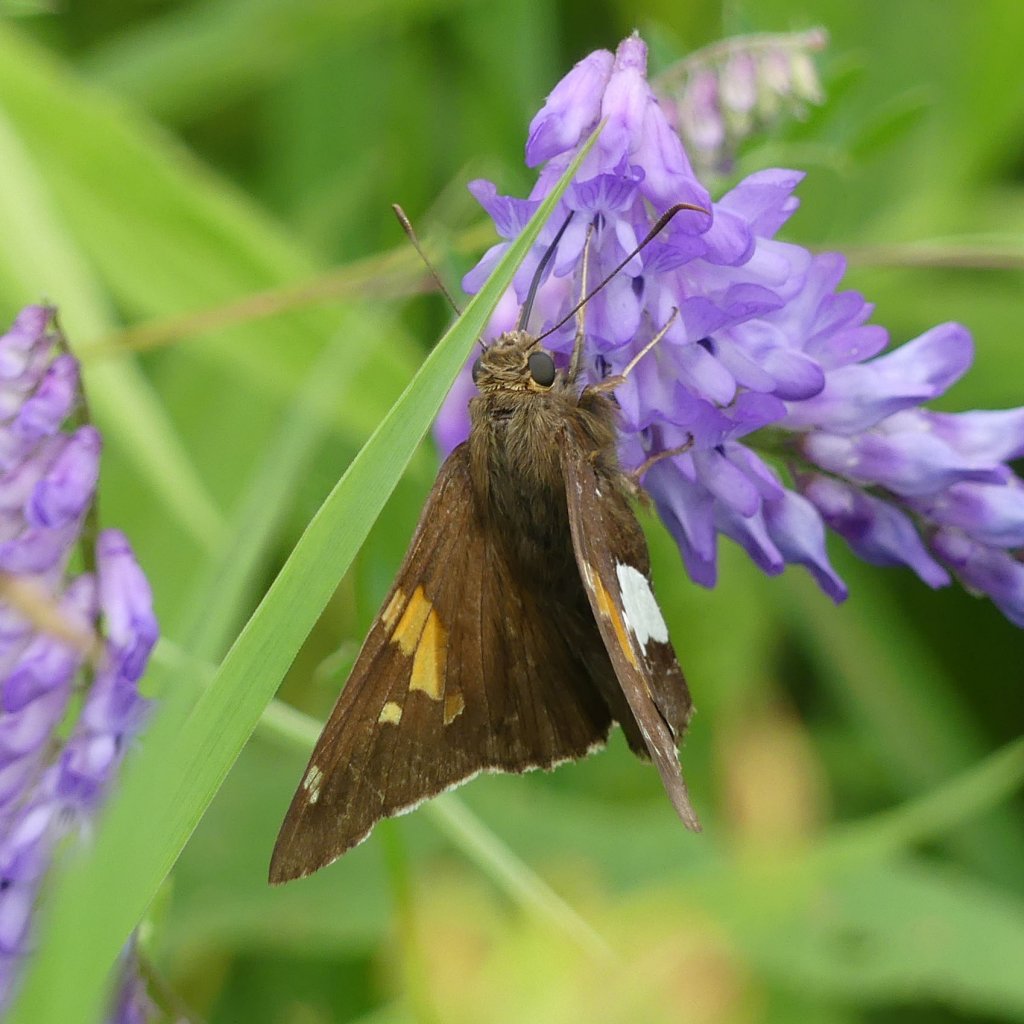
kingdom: Animalia
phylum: Arthropoda
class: Insecta
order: Lepidoptera
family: Hesperiidae
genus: Epargyreus
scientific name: Epargyreus clarus
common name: Silver-spotted Skipper
